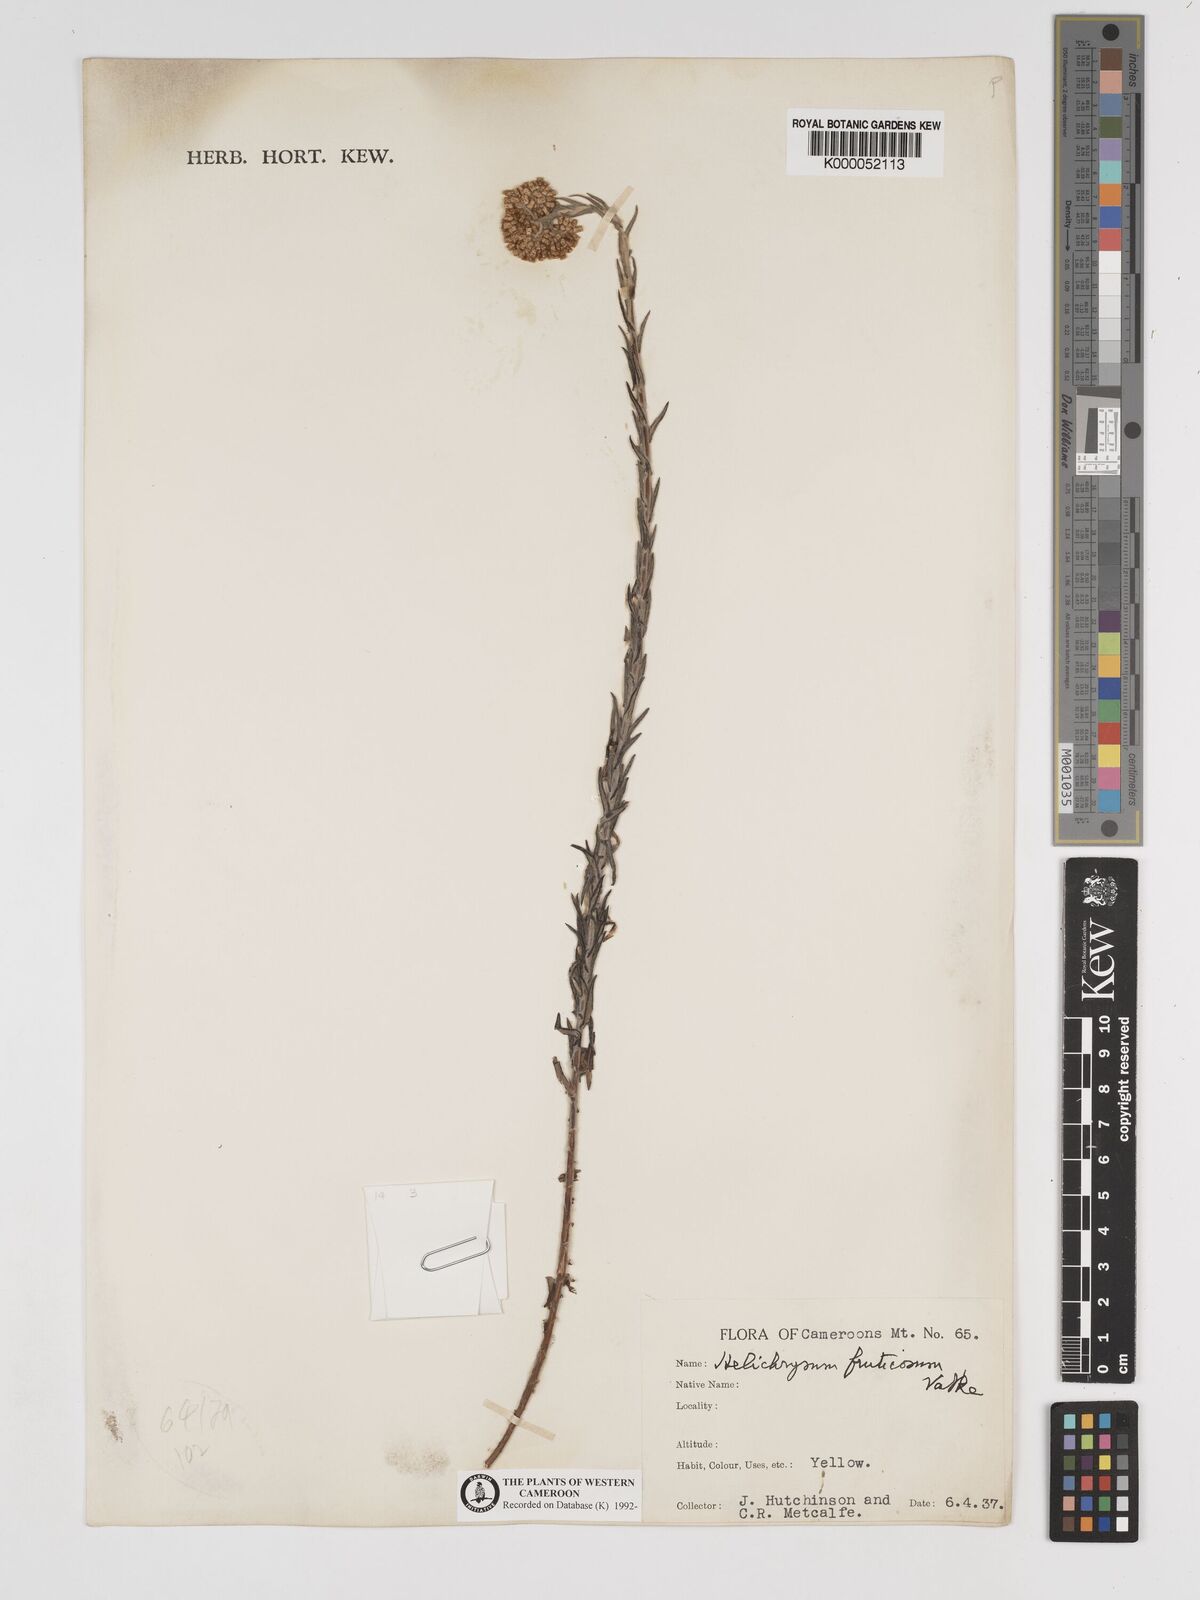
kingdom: Plantae
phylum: Tracheophyta
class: Magnoliopsida
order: Asterales
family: Asteraceae
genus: Helichrysum
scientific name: Helichrysum forskahlii
